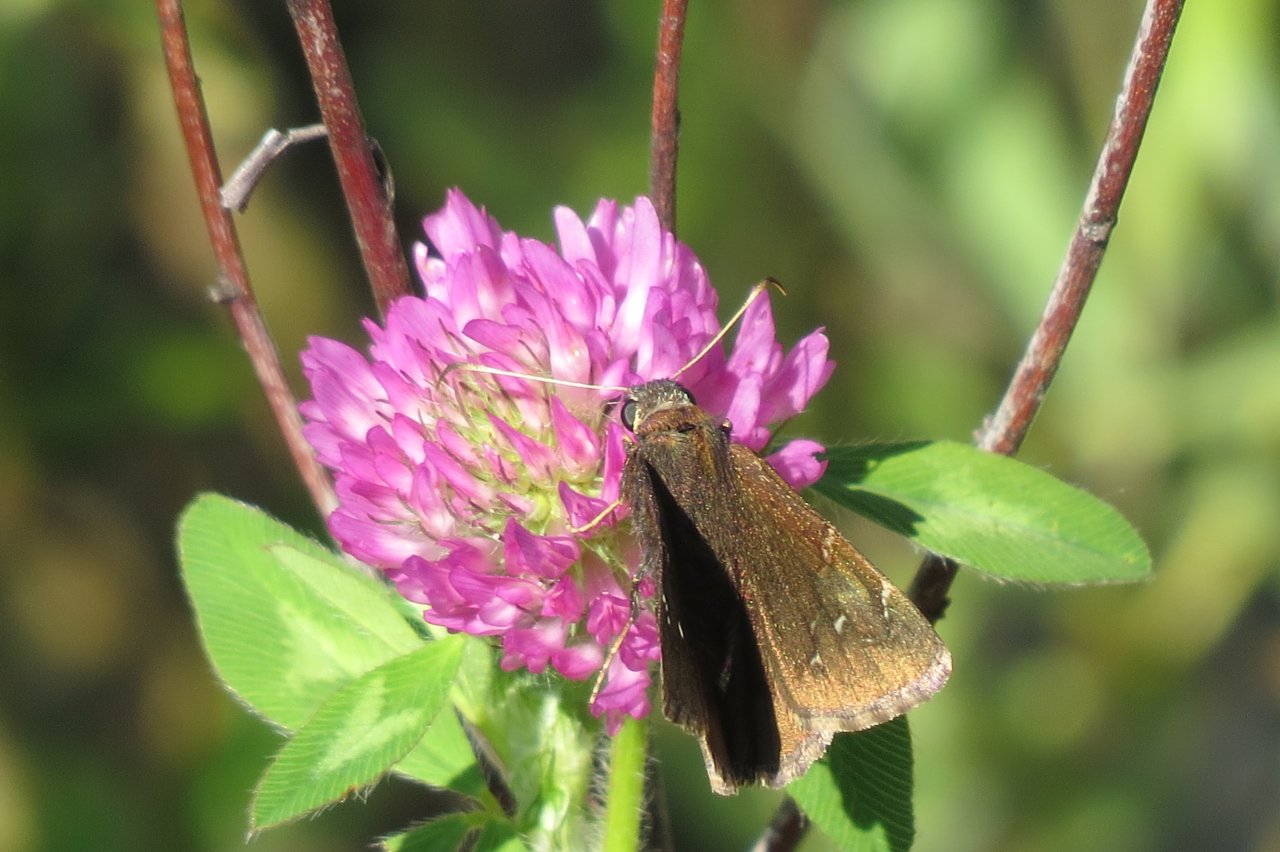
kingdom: Animalia
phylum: Arthropoda
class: Insecta
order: Lepidoptera
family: Hesperiidae
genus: Autochton
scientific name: Autochton
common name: Northern Cloudywing
